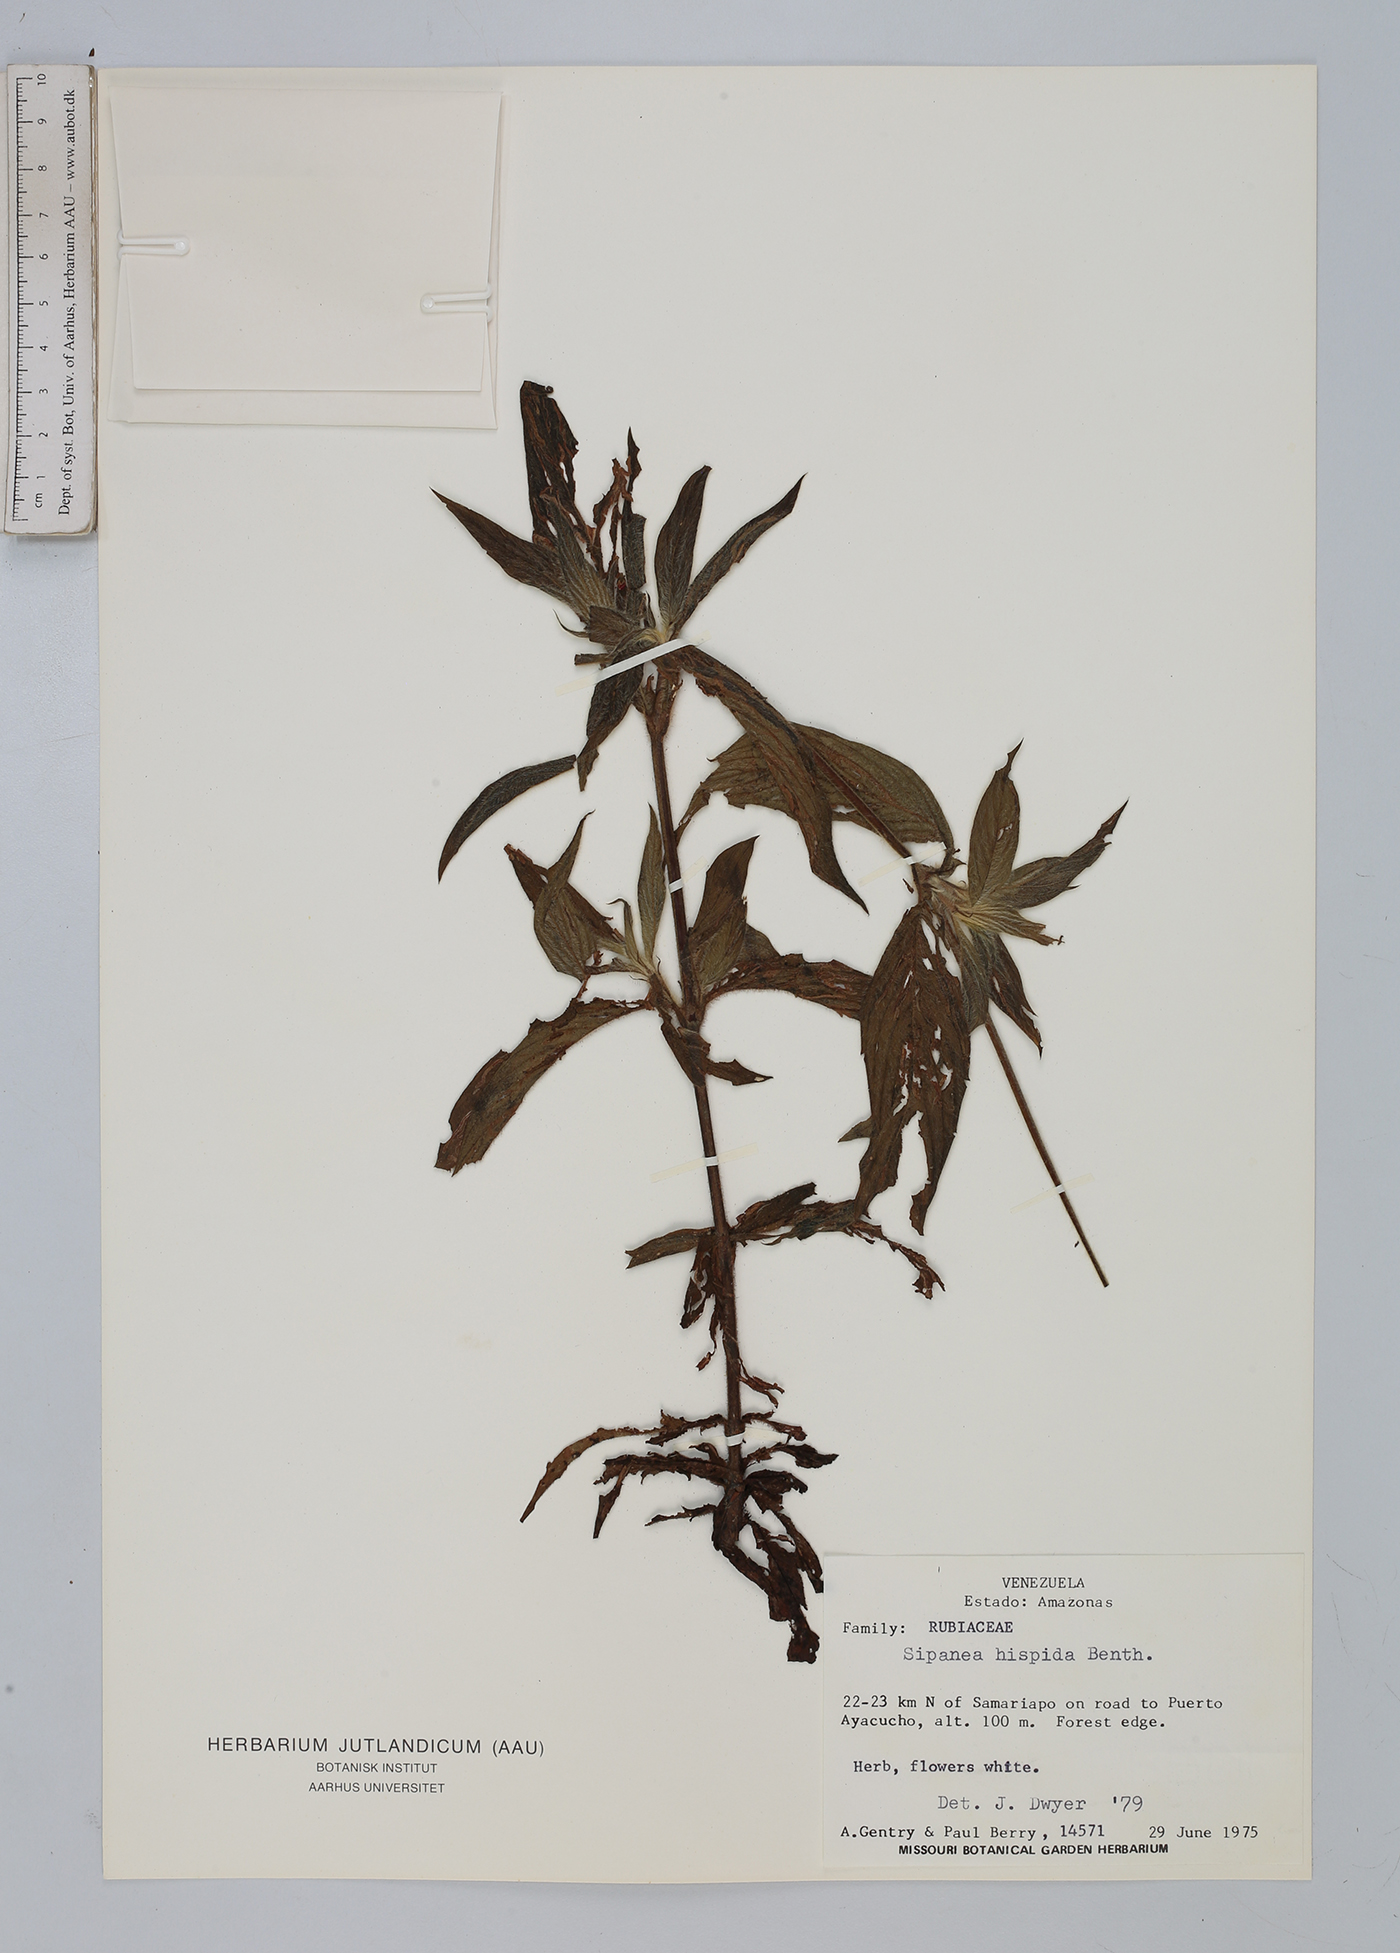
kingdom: Plantae
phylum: Tracheophyta
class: Magnoliopsida
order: Gentianales
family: Rubiaceae
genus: Sipanea
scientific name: Sipanea hispida
